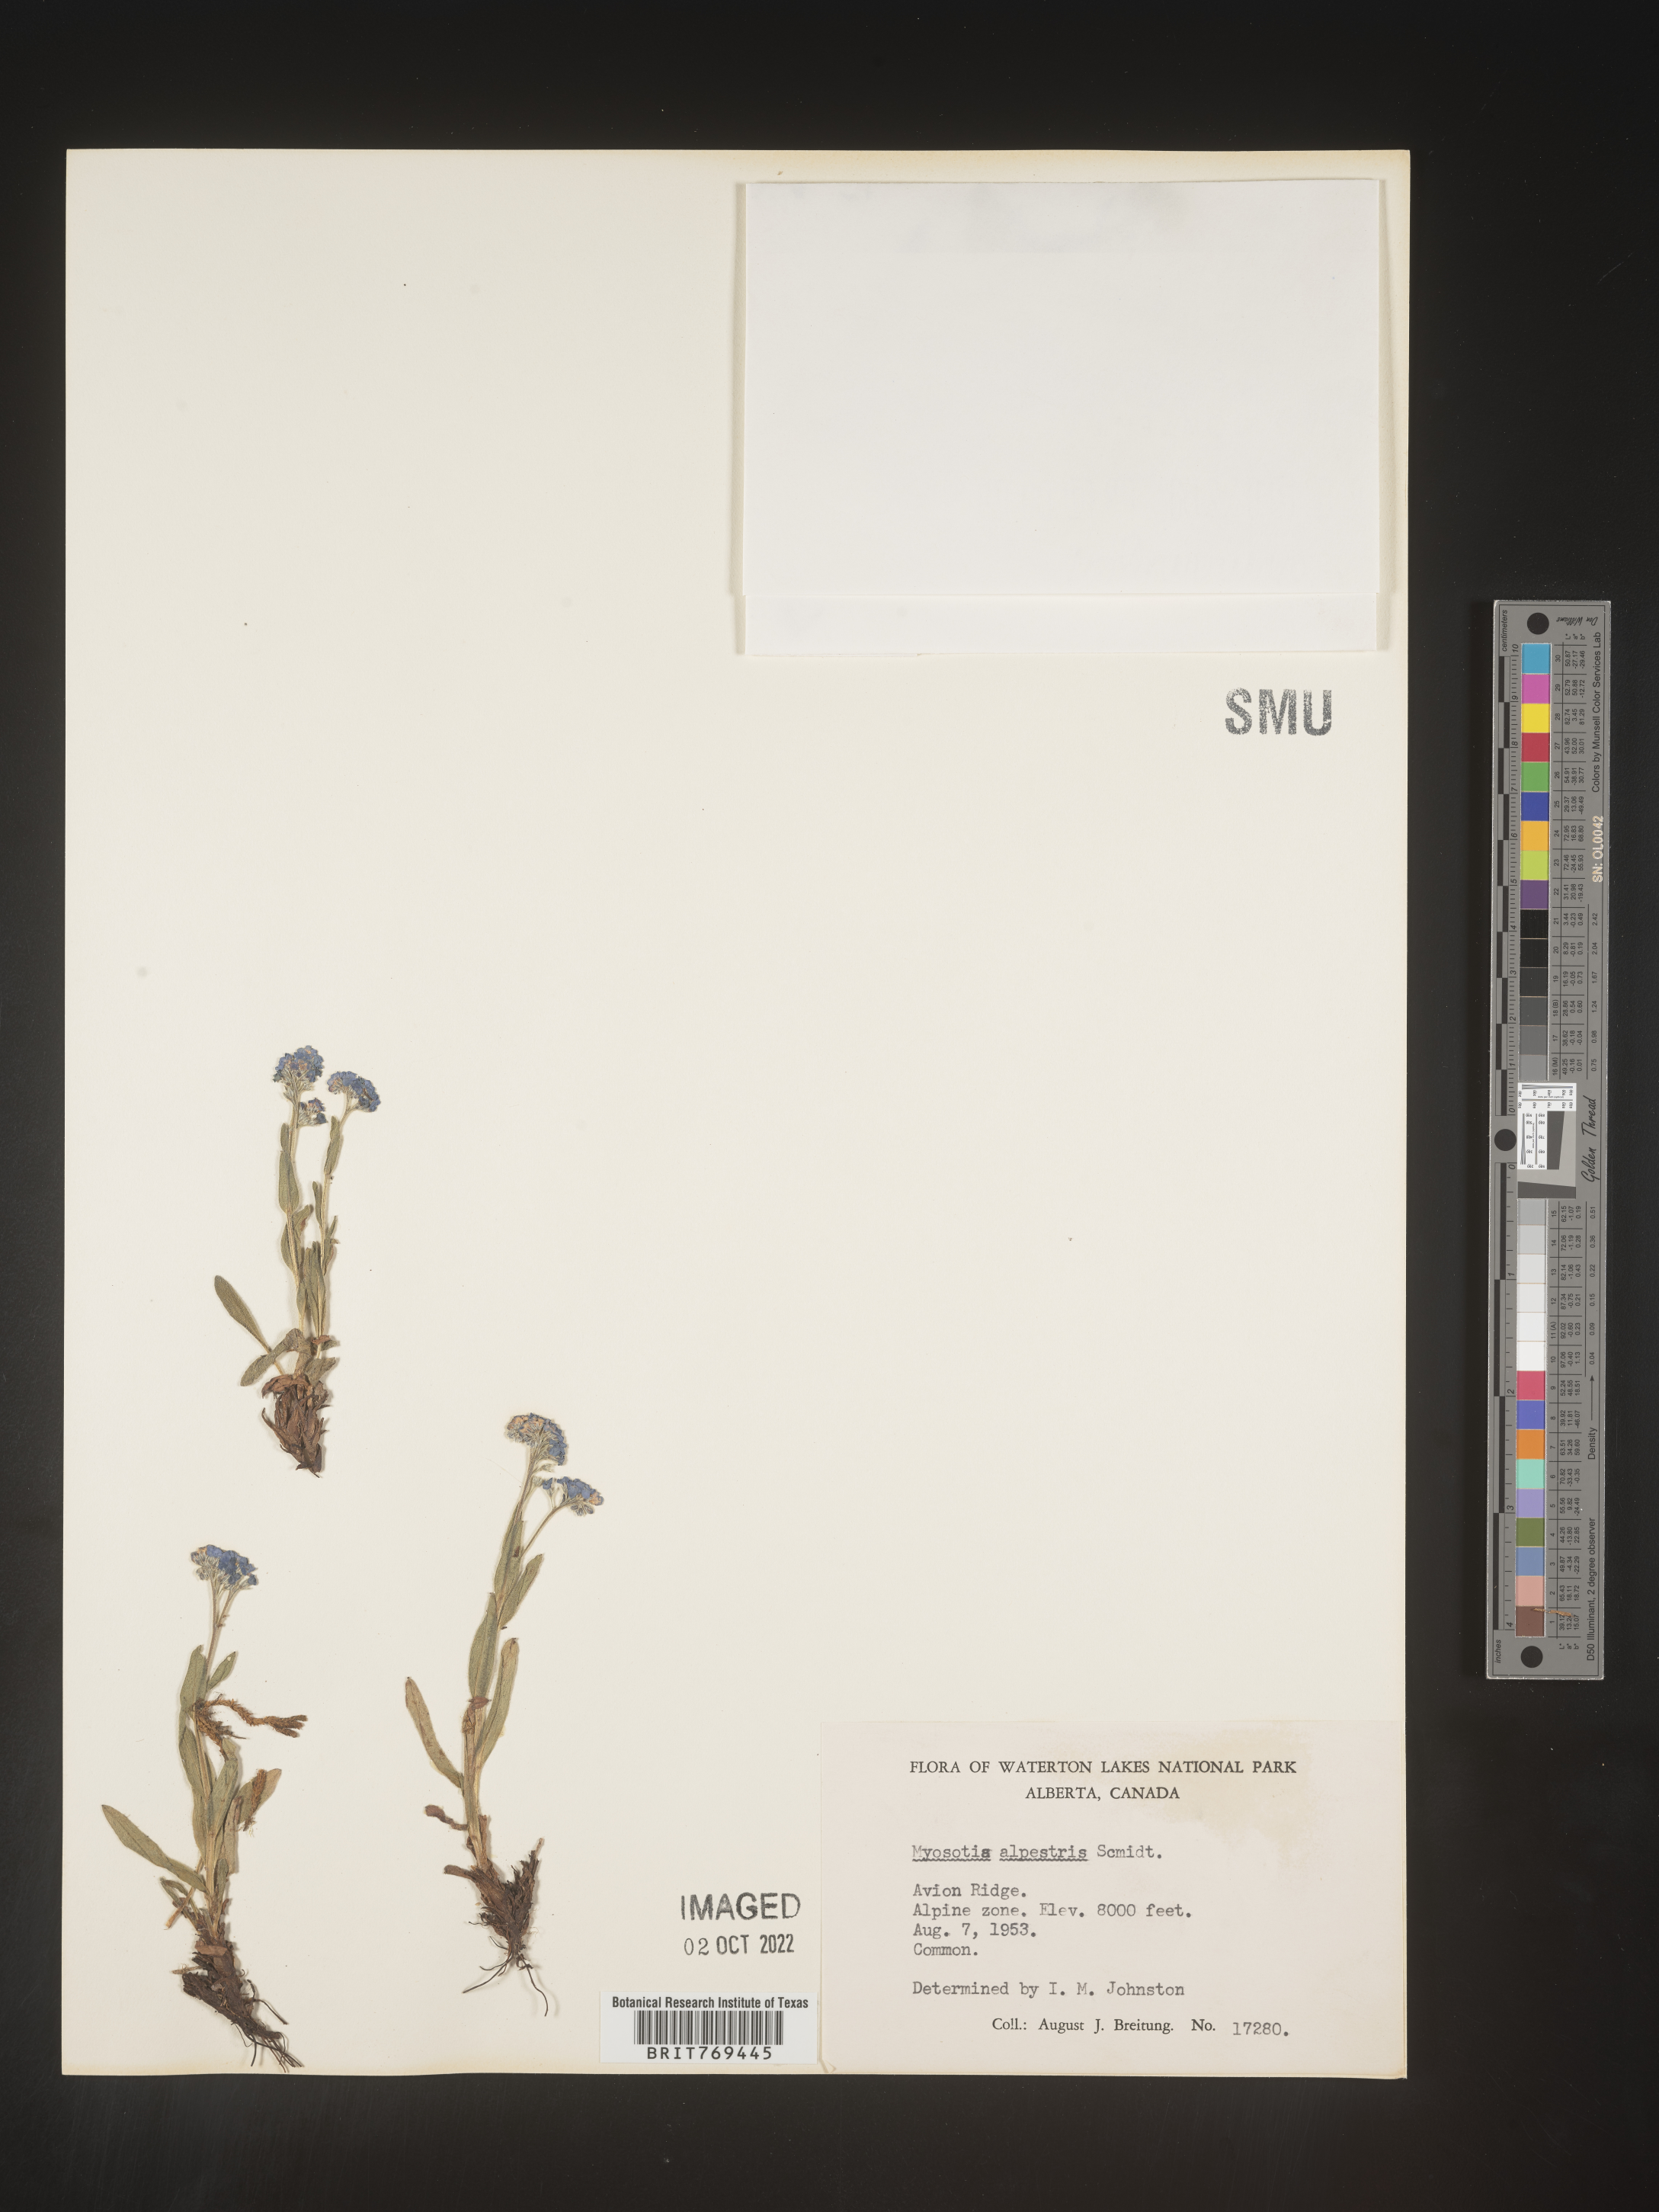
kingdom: Plantae
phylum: Tracheophyta
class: Magnoliopsida
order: Boraginales
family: Boraginaceae
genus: Myosotis
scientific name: Myosotis
